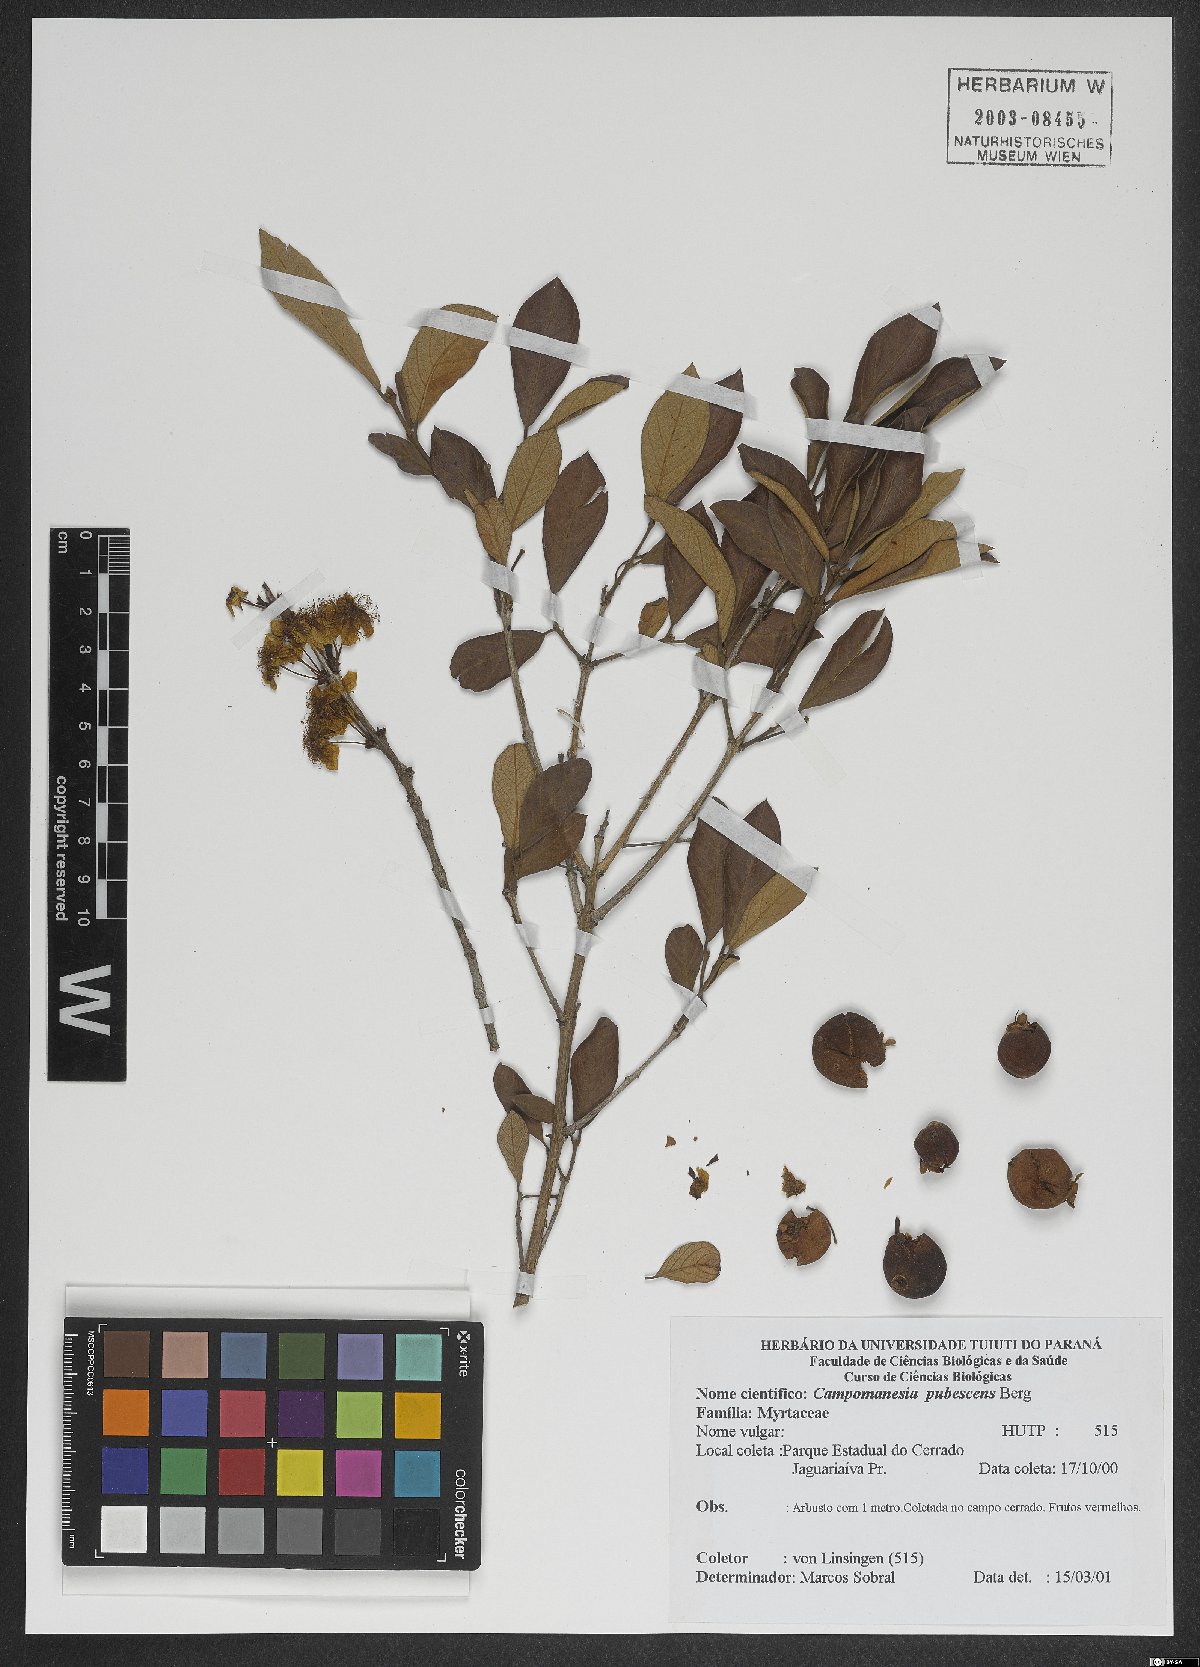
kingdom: Plantae
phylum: Tracheophyta
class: Magnoliopsida
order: Myrtales
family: Myrtaceae
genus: Campomanesia
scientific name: Campomanesia pubescens
